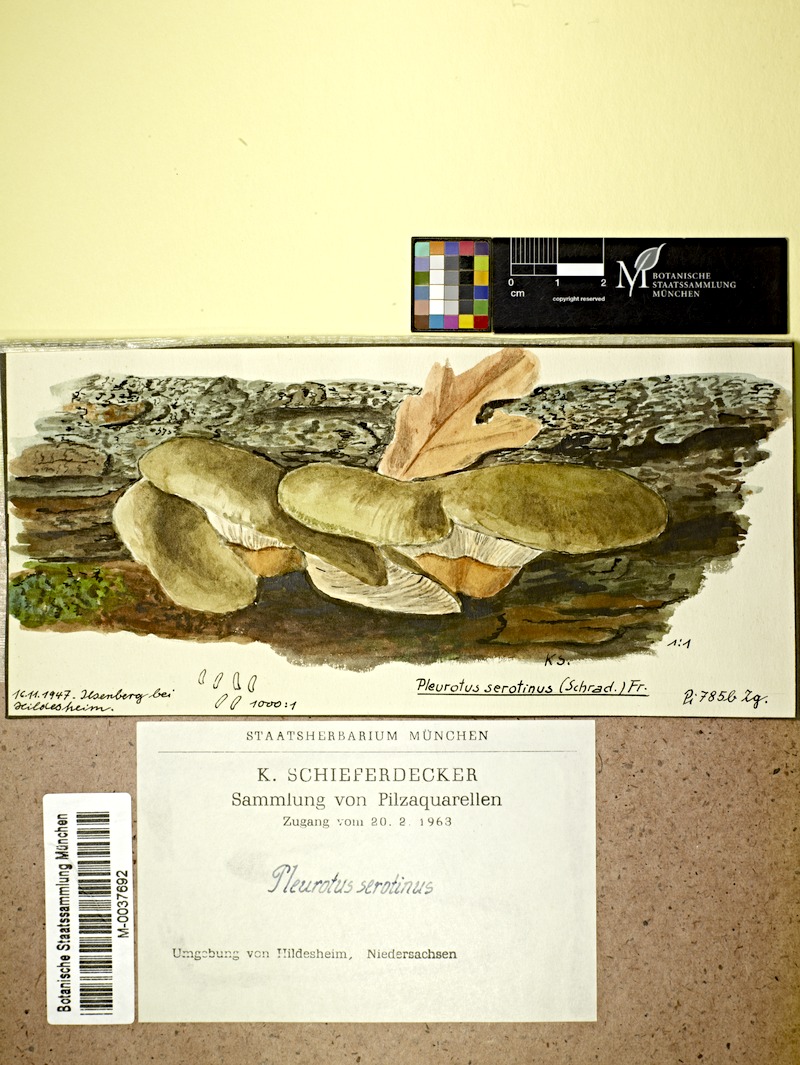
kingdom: Fungi
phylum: Basidiomycota
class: Agaricomycetes
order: Agaricales
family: Sarcomyxaceae
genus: Sarcomyxa
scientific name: Sarcomyxa serotina
